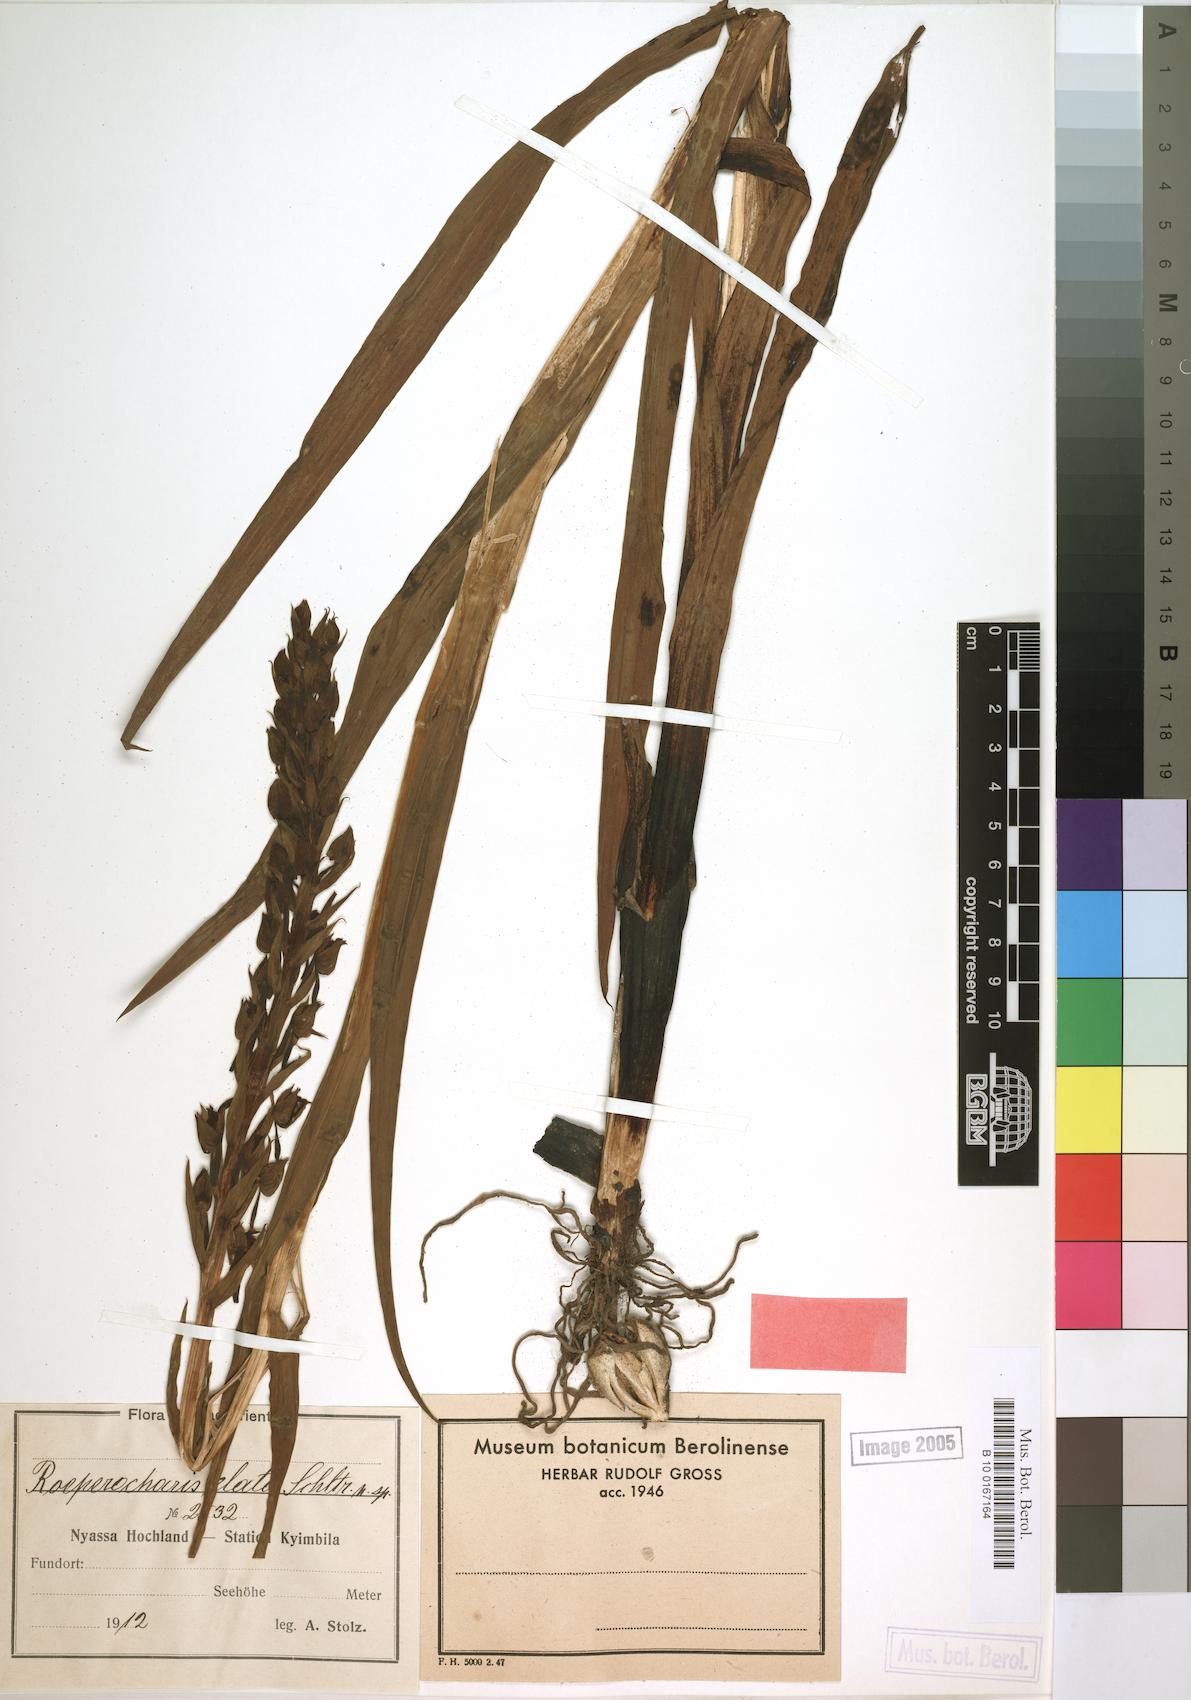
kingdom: Plantae
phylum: Tracheophyta
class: Liliopsida
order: Asparagales
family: Orchidaceae
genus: Roeperocharis
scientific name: Roeperocharis bennettiana
